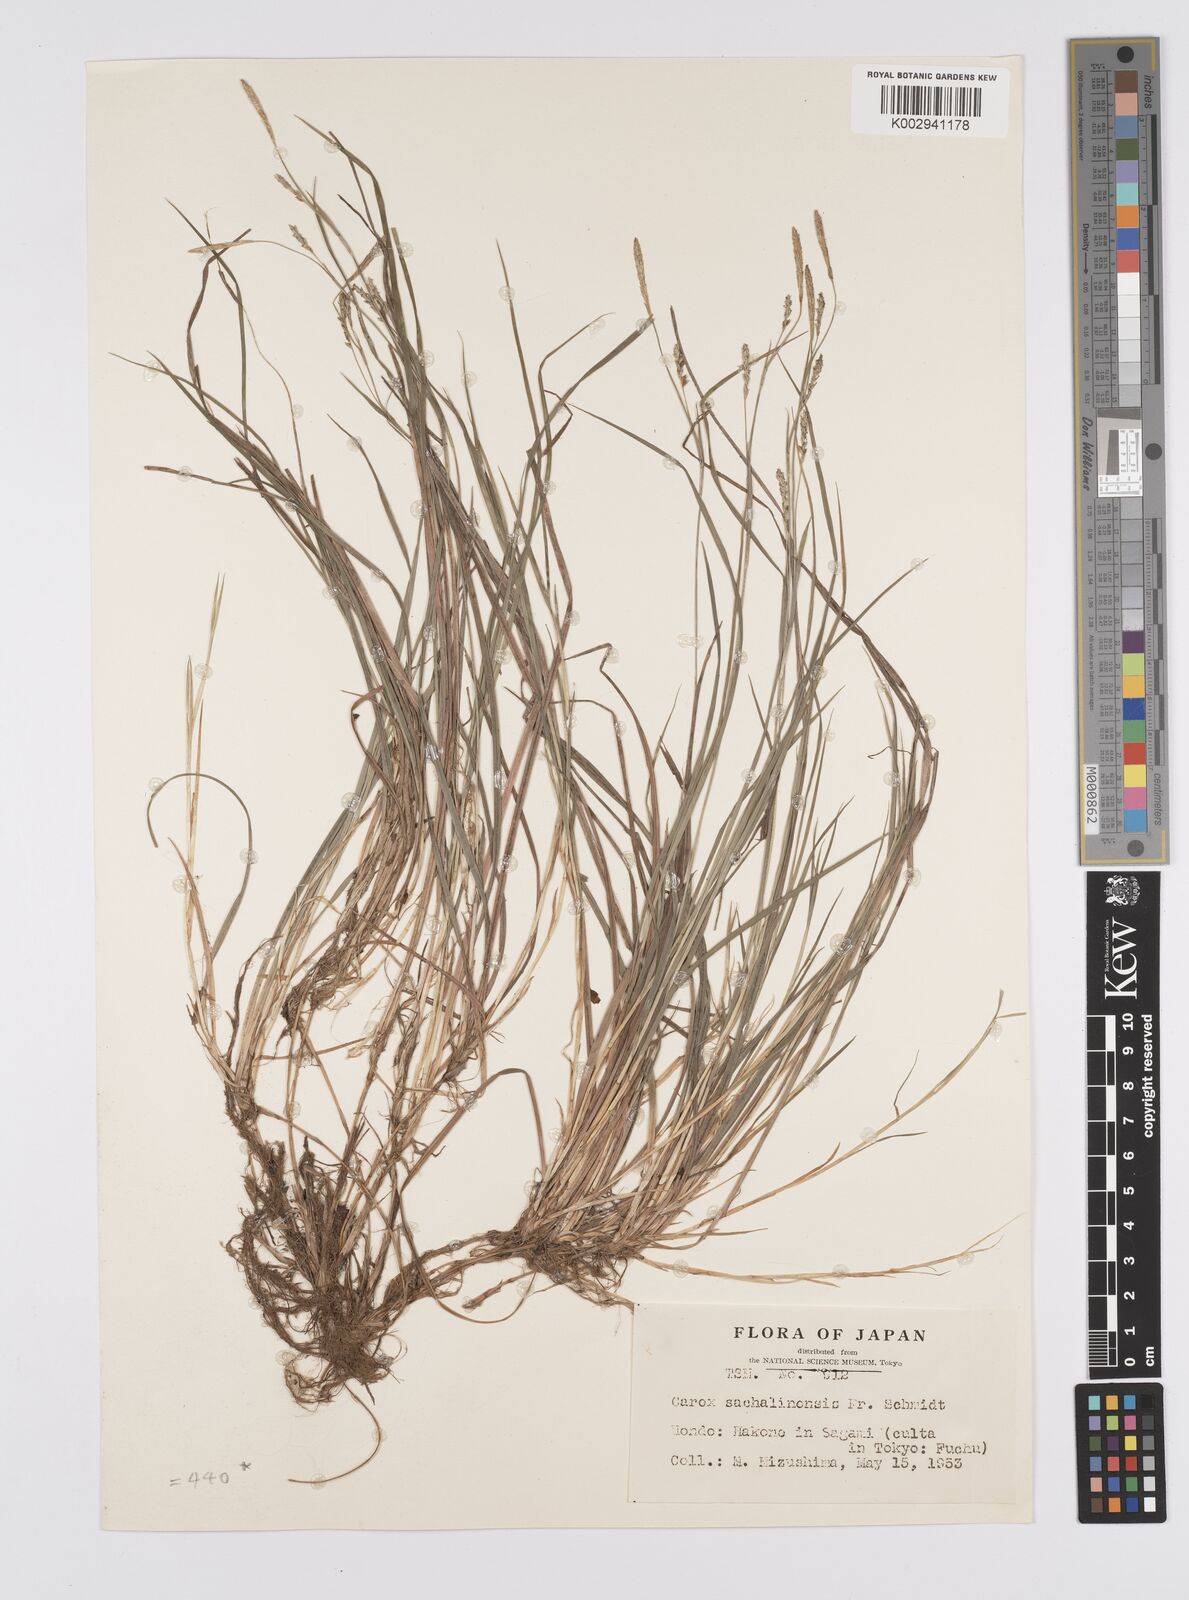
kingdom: Plantae
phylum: Tracheophyta
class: Liliopsida
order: Poales
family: Cyperaceae
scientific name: Cyperaceae
